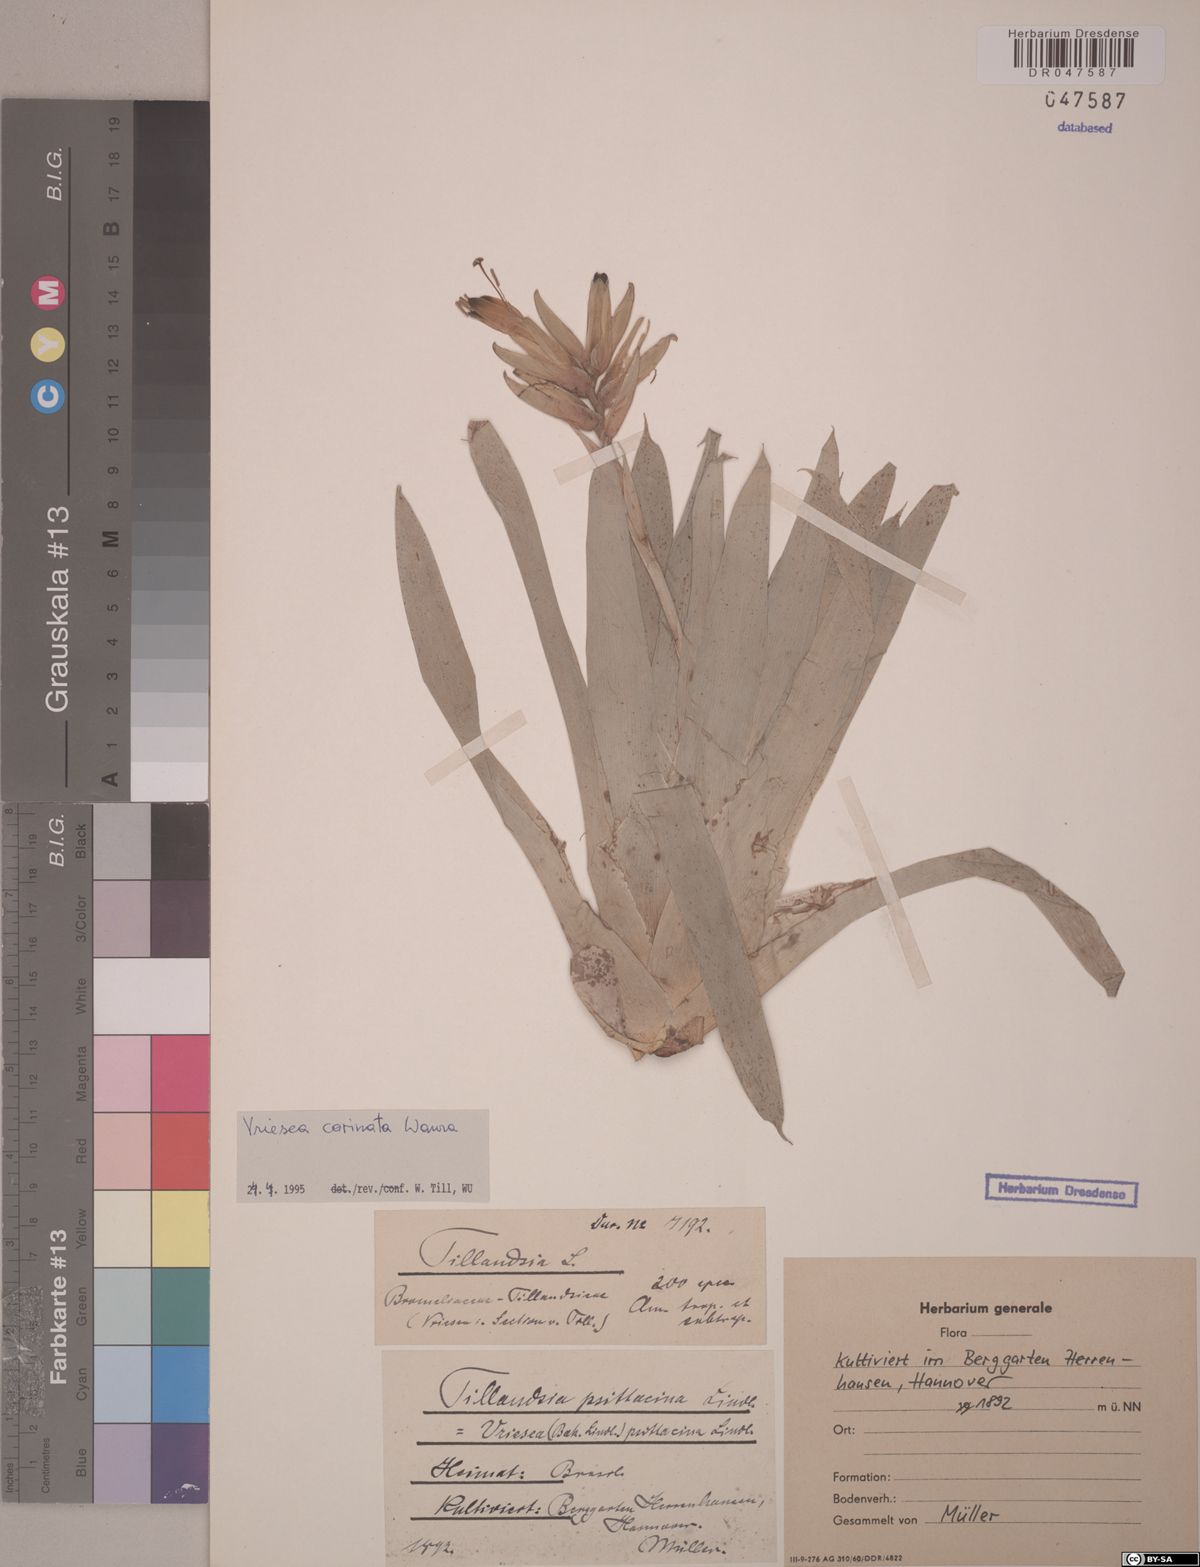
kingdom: Plantae
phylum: Tracheophyta
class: Liliopsida
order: Poales
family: Bromeliaceae
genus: Vriesea
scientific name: Vriesea carinata
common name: Lobster-claws
